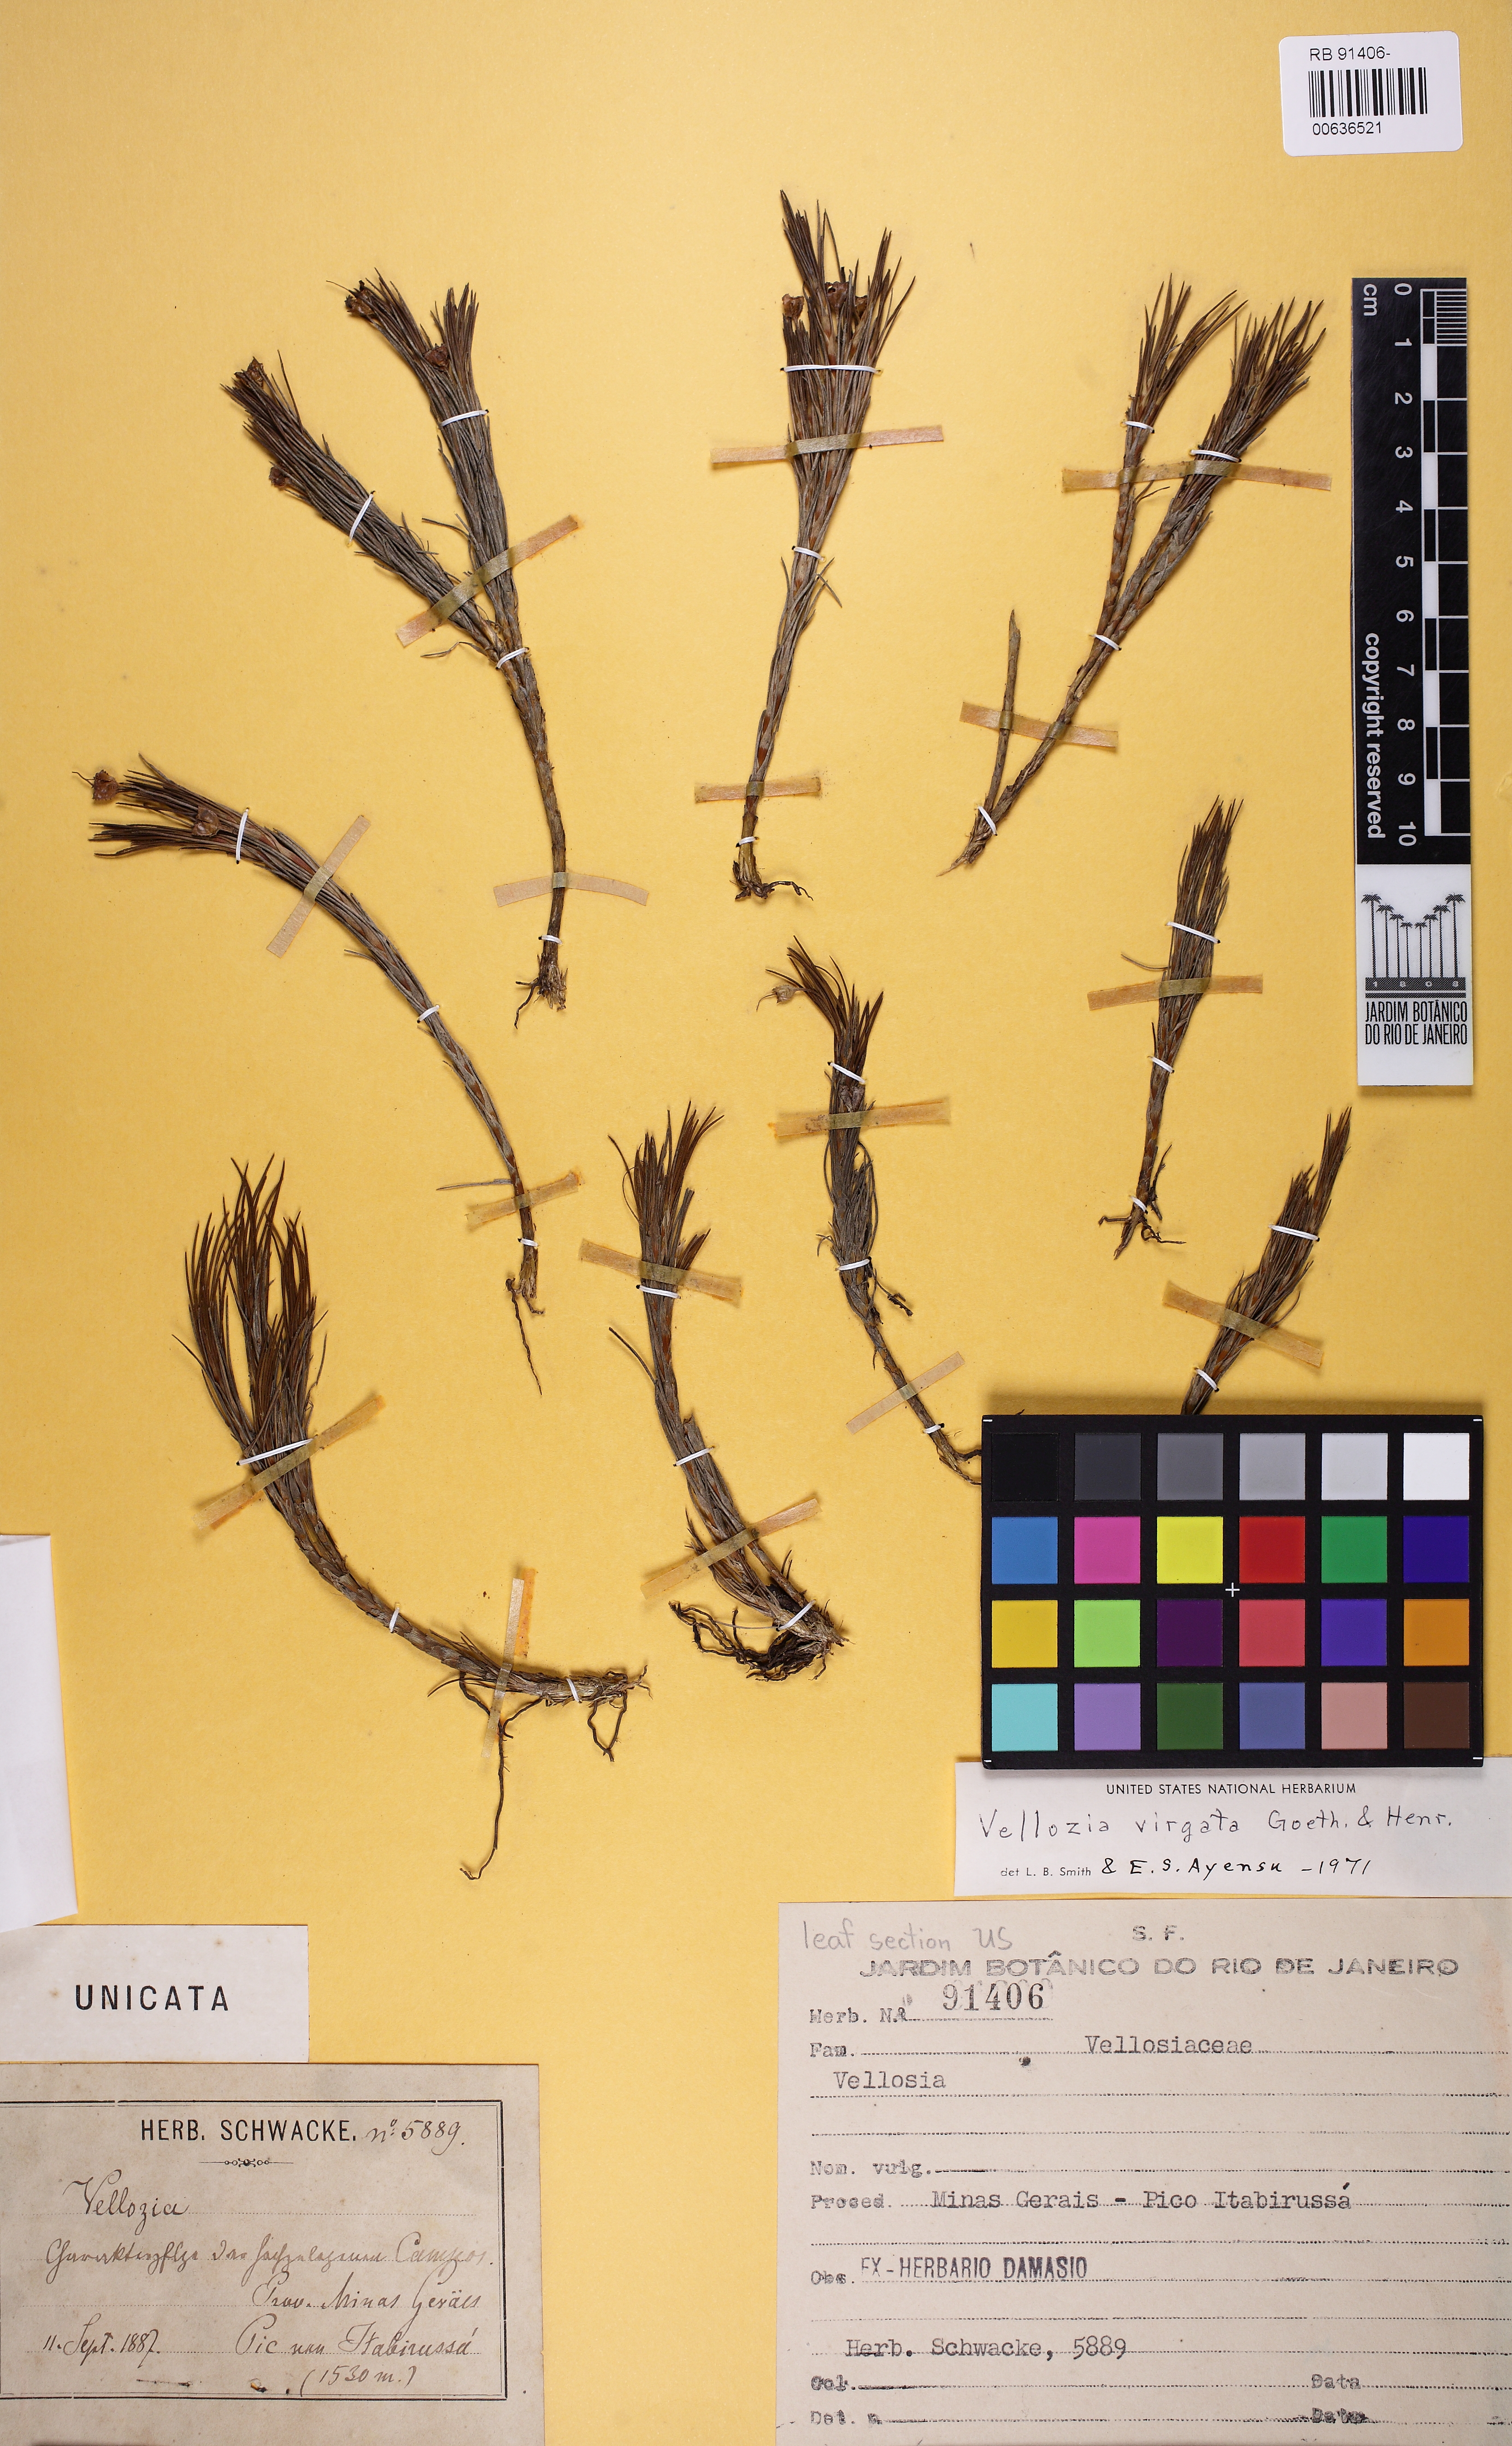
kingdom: Plantae
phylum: Tracheophyta
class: Liliopsida
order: Pandanales
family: Velloziaceae
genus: Vellozia
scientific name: Vellozia sellowii
